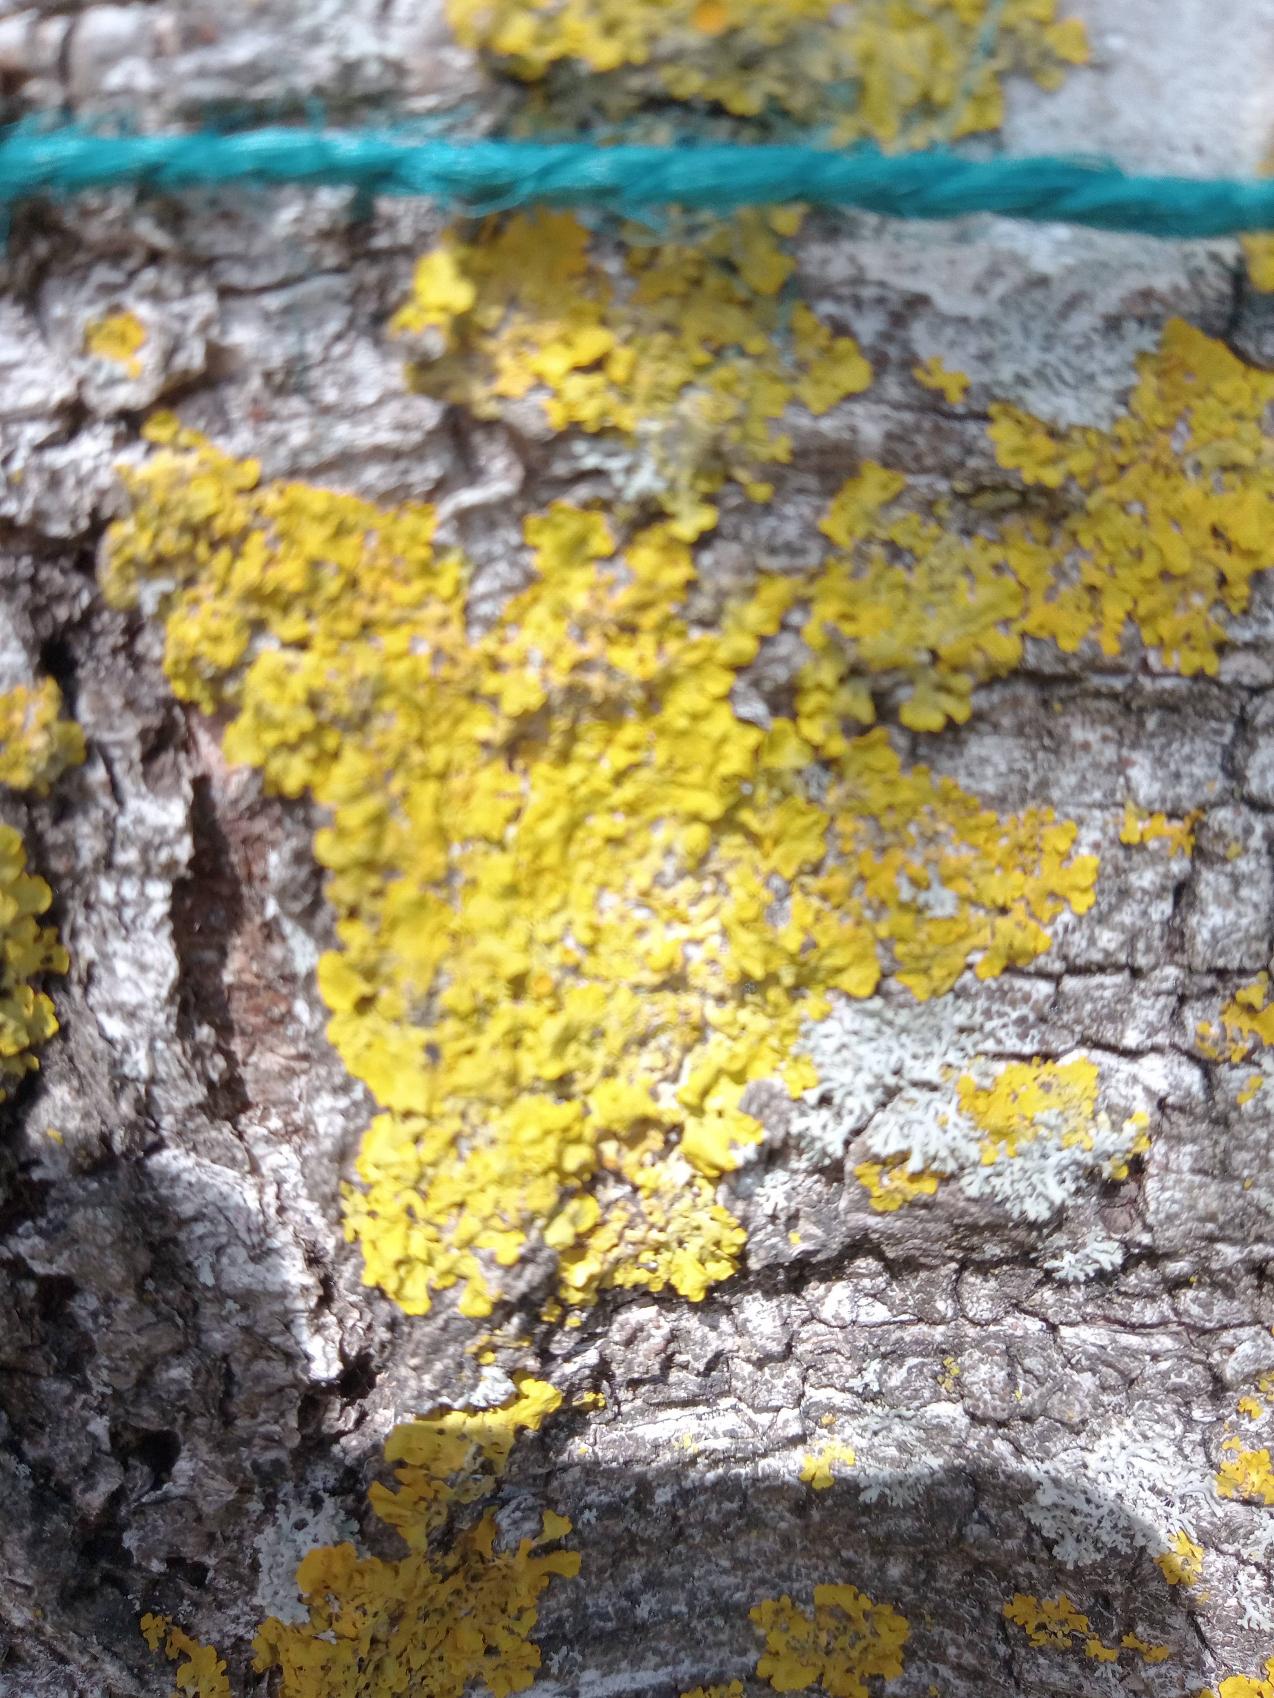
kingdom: Fungi
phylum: Ascomycota
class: Lecanoromycetes
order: Teloschistales
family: Teloschistaceae
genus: Xanthoria
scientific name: Xanthoria parietina
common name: Almindelig væggelav
